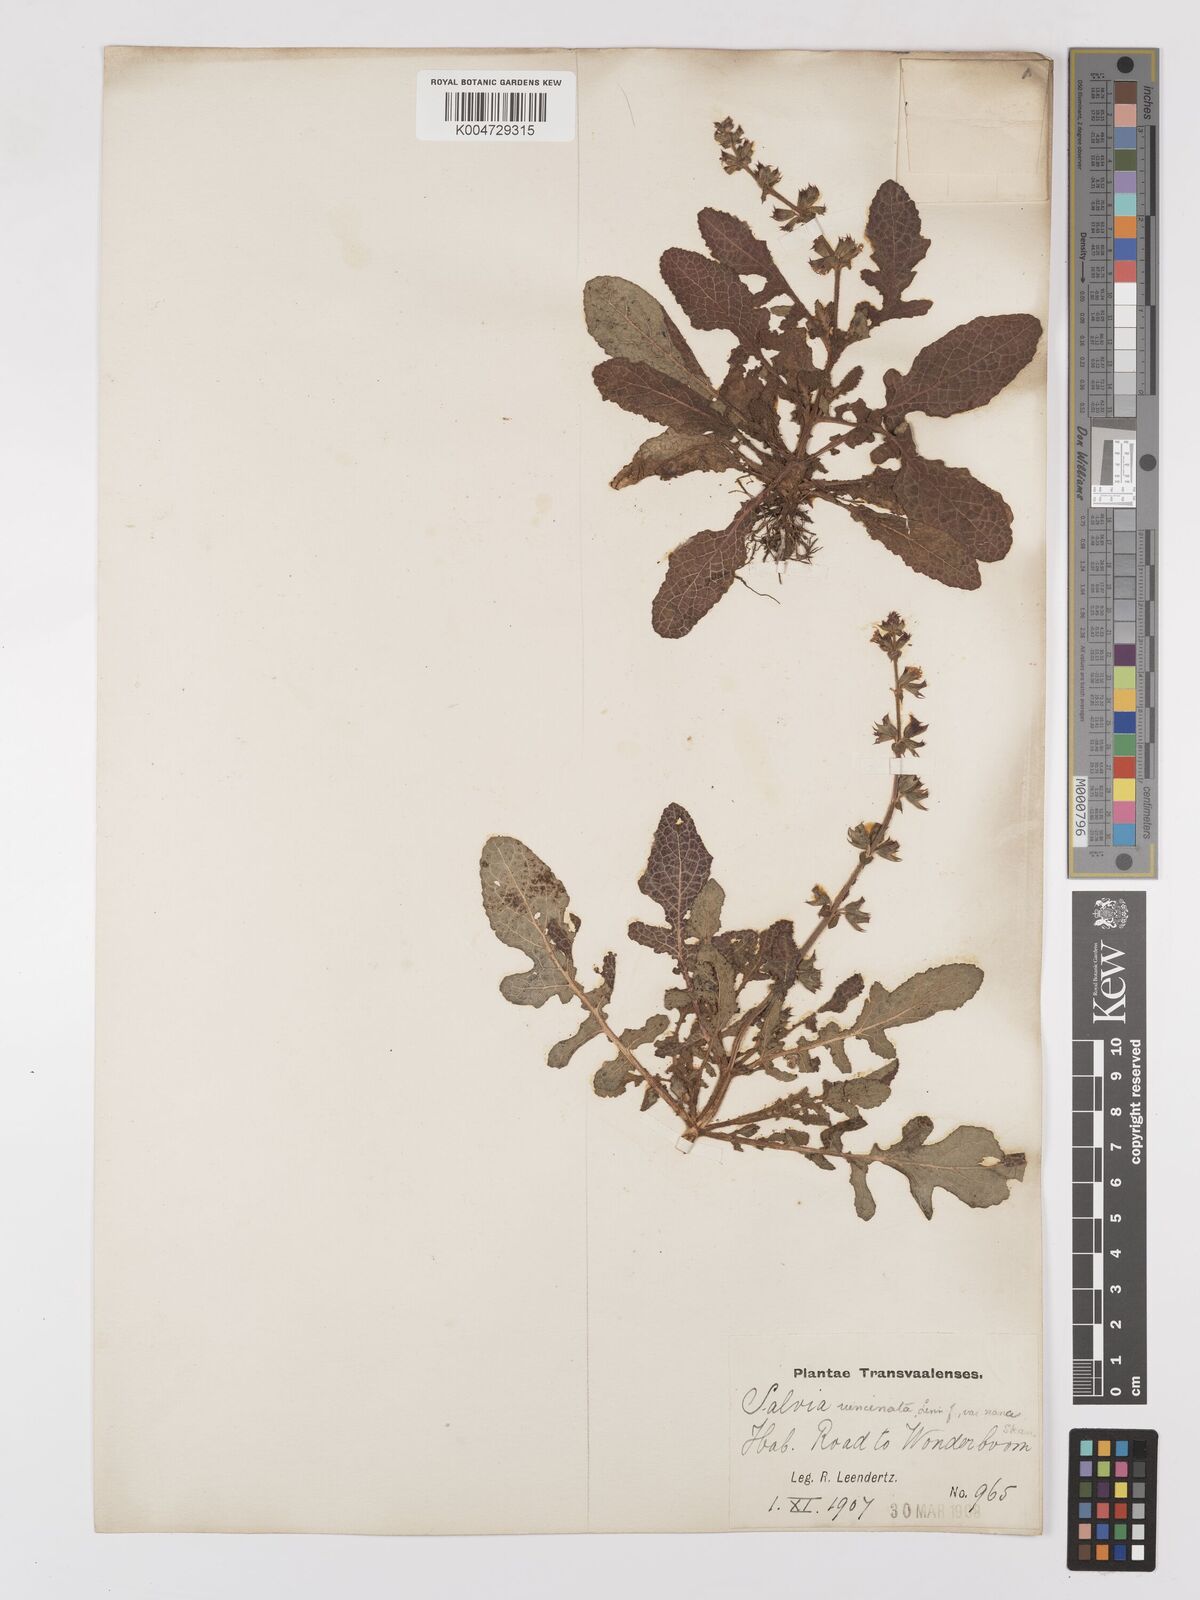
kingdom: Plantae
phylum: Tracheophyta
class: Magnoliopsida
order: Lamiales
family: Lamiaceae
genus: Salvia
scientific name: Salvia runcinata
